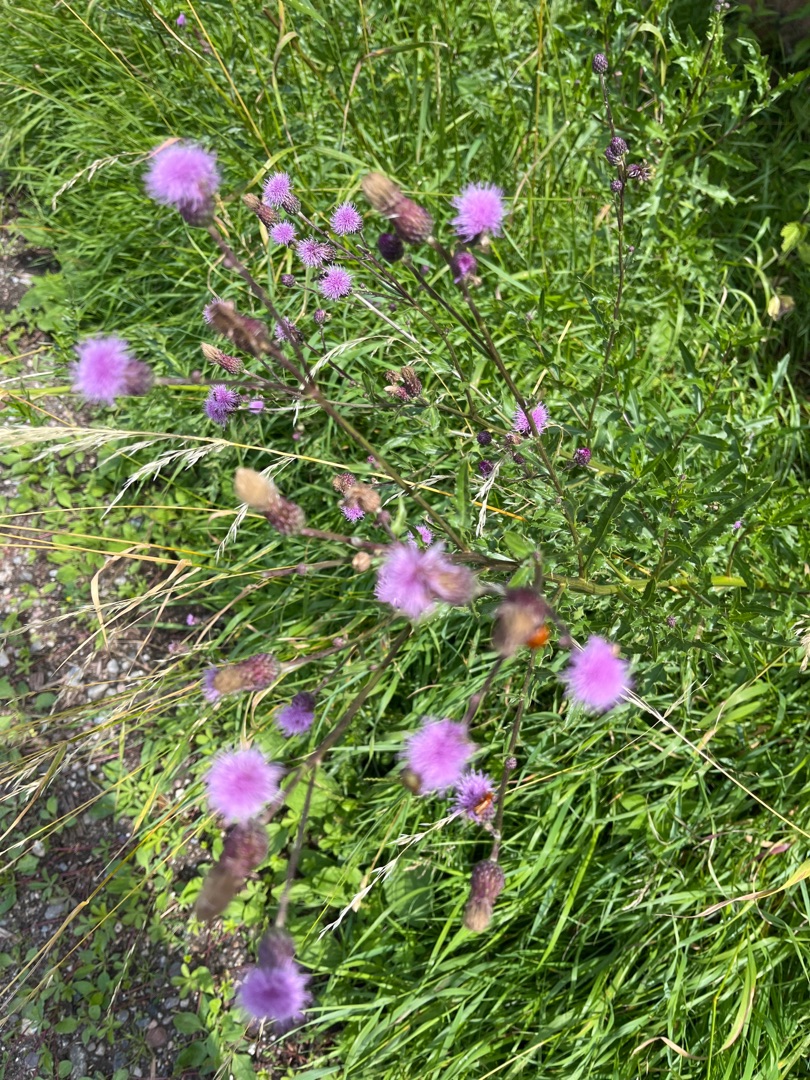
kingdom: Plantae
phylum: Tracheophyta
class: Magnoliopsida
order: Asterales
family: Asteraceae
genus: Cirsium
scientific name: Cirsium arvense
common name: Ager-tidsel
